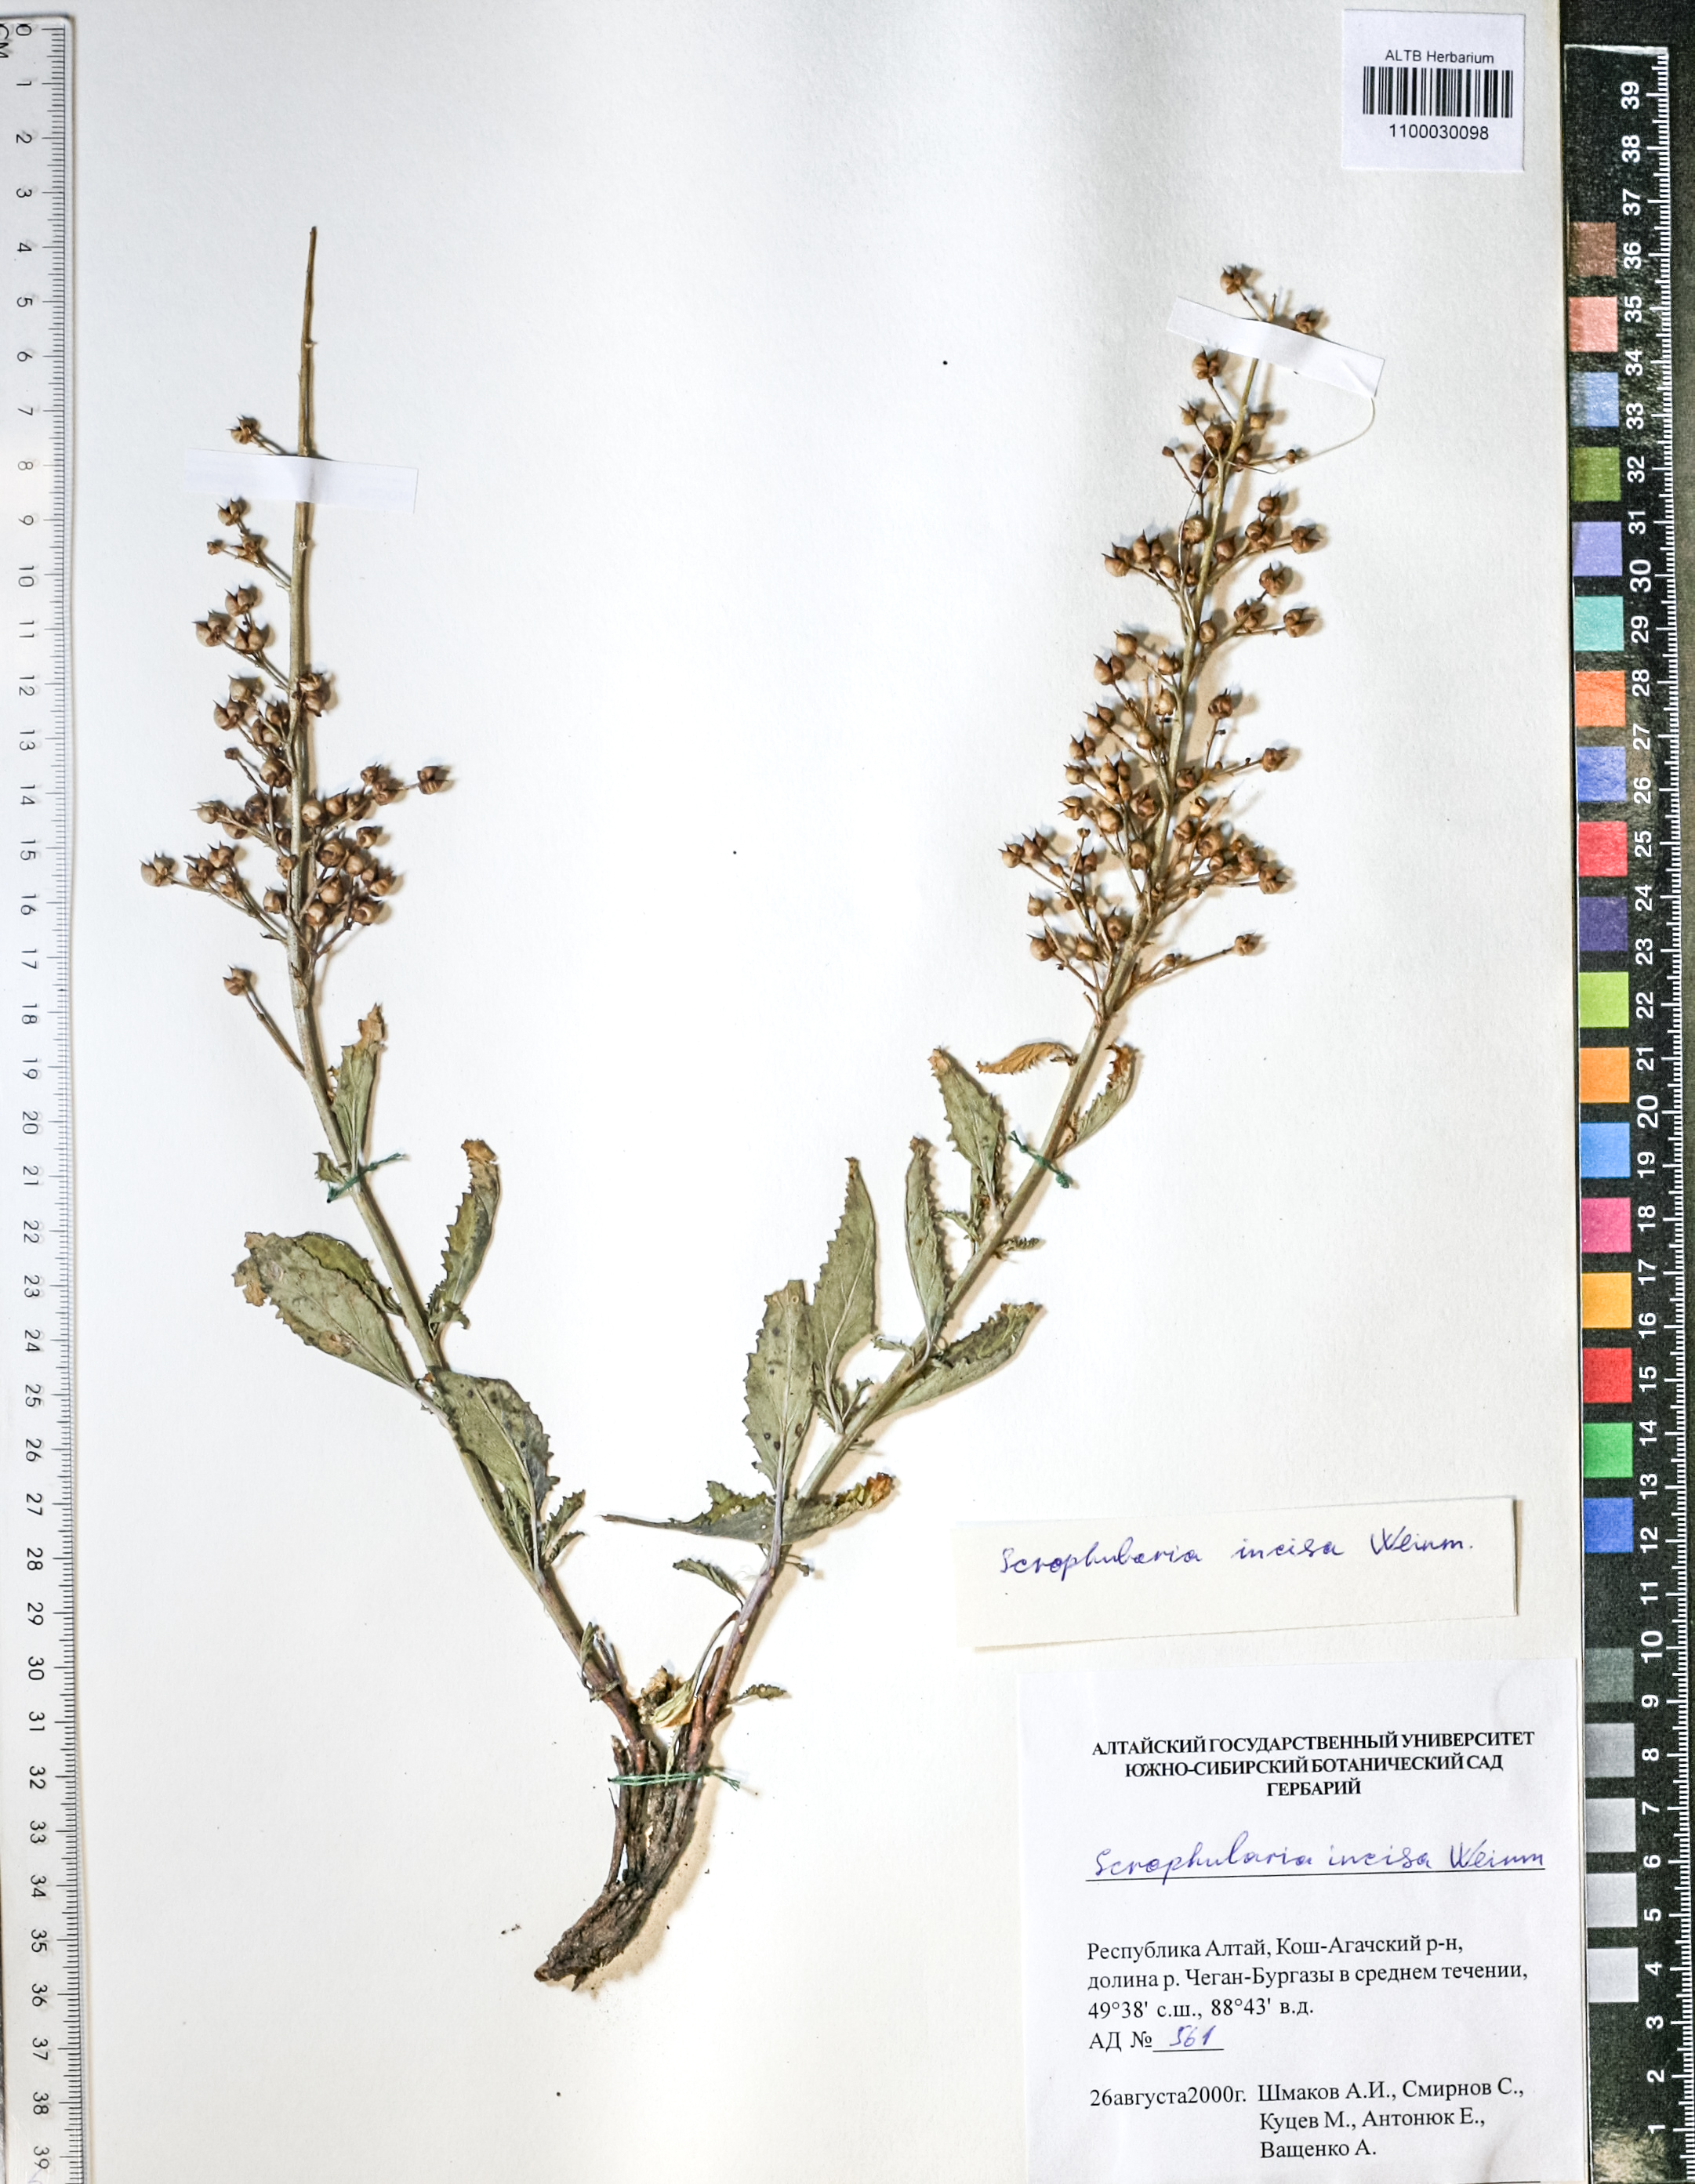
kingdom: Plantae
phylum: Tracheophyta
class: Magnoliopsida
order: Lamiales
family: Scrophulariaceae
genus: Scrophularia
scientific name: Scrophularia incisa
